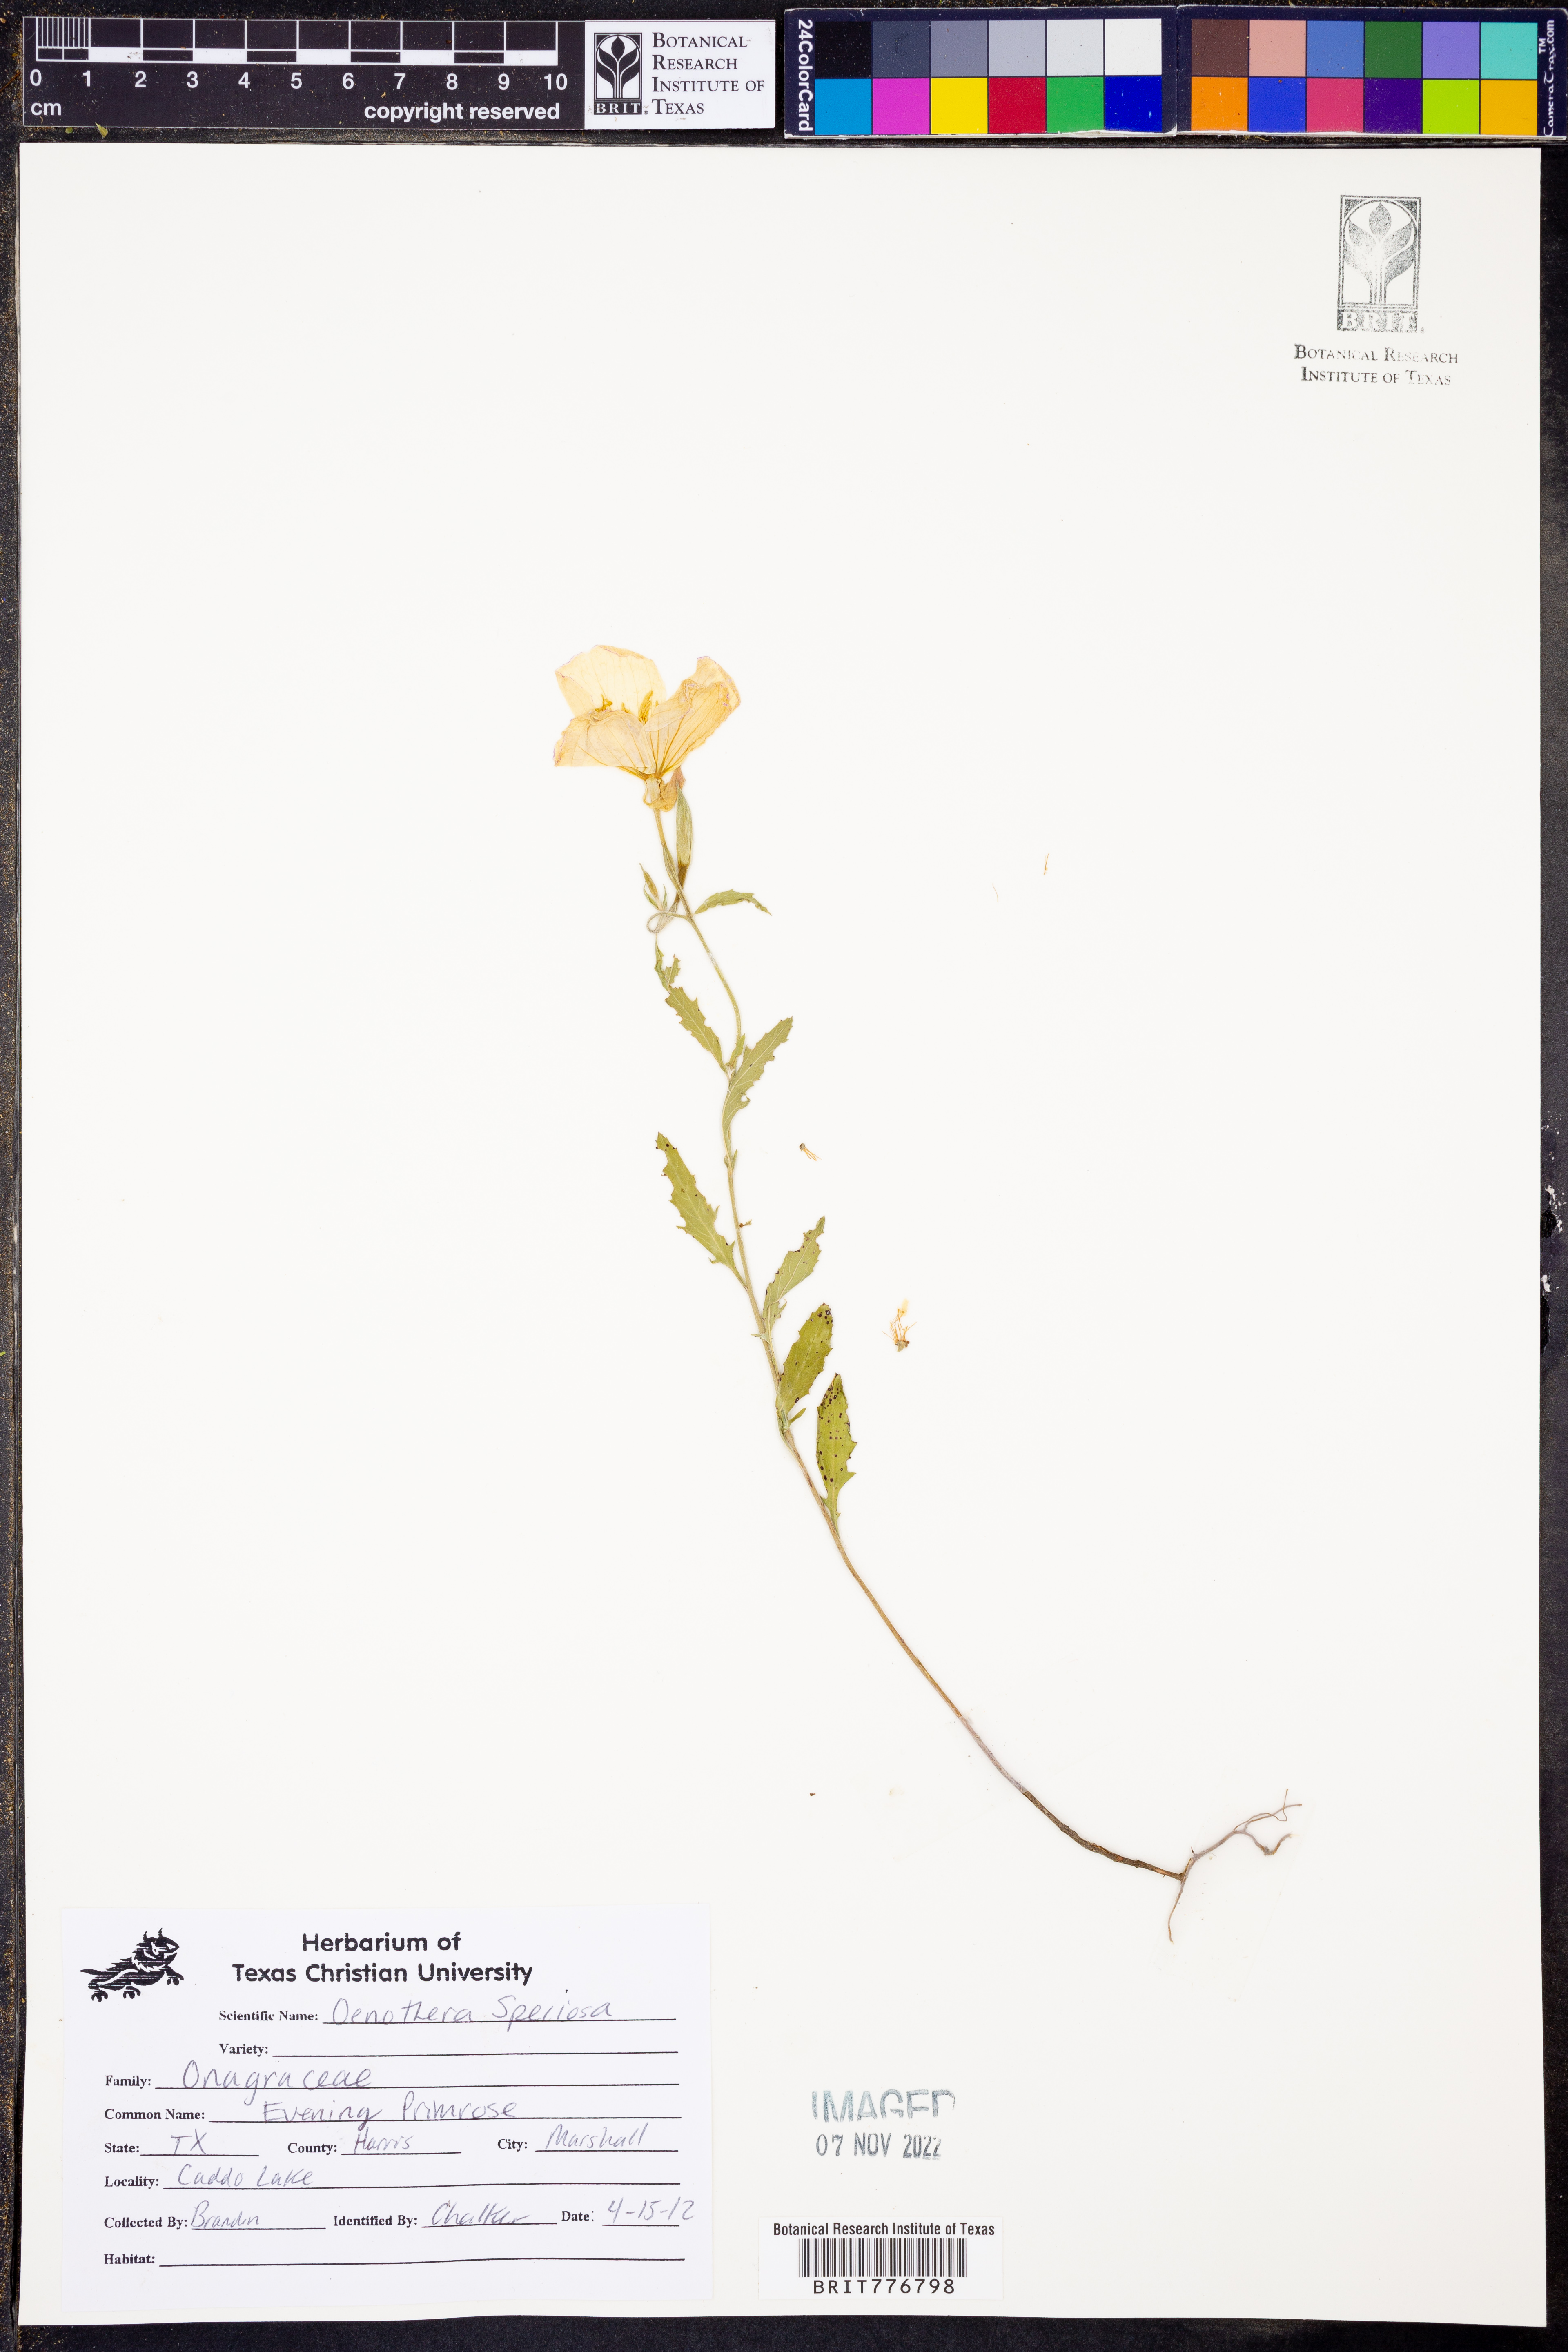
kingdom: Plantae
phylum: Tracheophyta
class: Magnoliopsida
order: Myrtales
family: Onagraceae
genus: Oenothera
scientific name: Oenothera speciosa
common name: White evening-primrose
